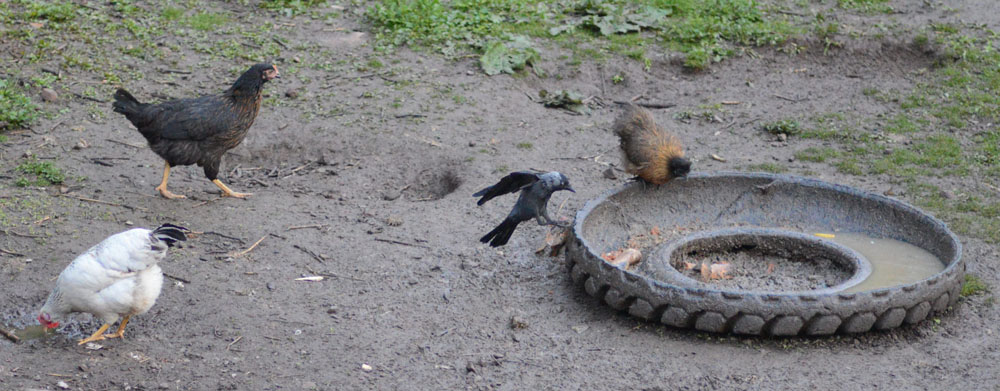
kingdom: Animalia
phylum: Chordata
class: Aves
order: Passeriformes
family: Corvidae
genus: Coloeus
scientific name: Coloeus monedula
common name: Western jackdaw
